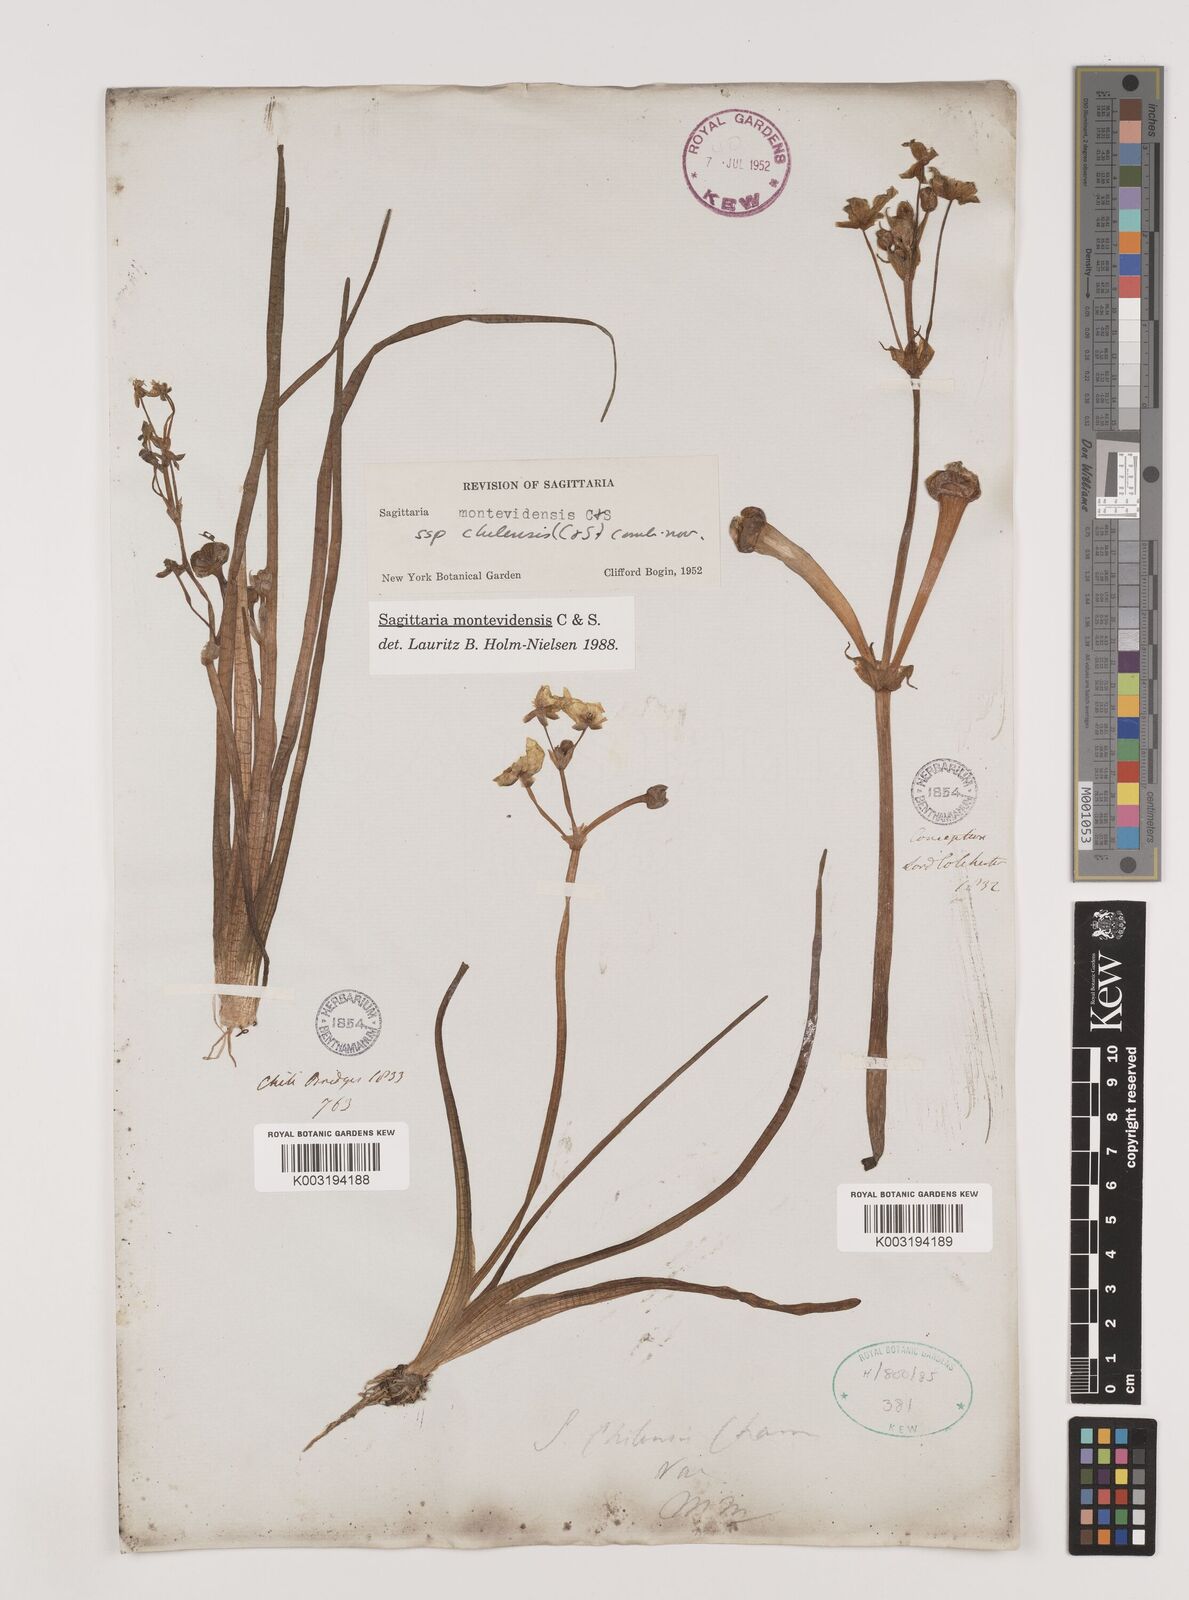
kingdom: Plantae
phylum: Tracheophyta
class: Liliopsida
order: Alismatales
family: Alismataceae
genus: Sagittaria
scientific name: Sagittaria montevidensis
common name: Giant arrowhead
